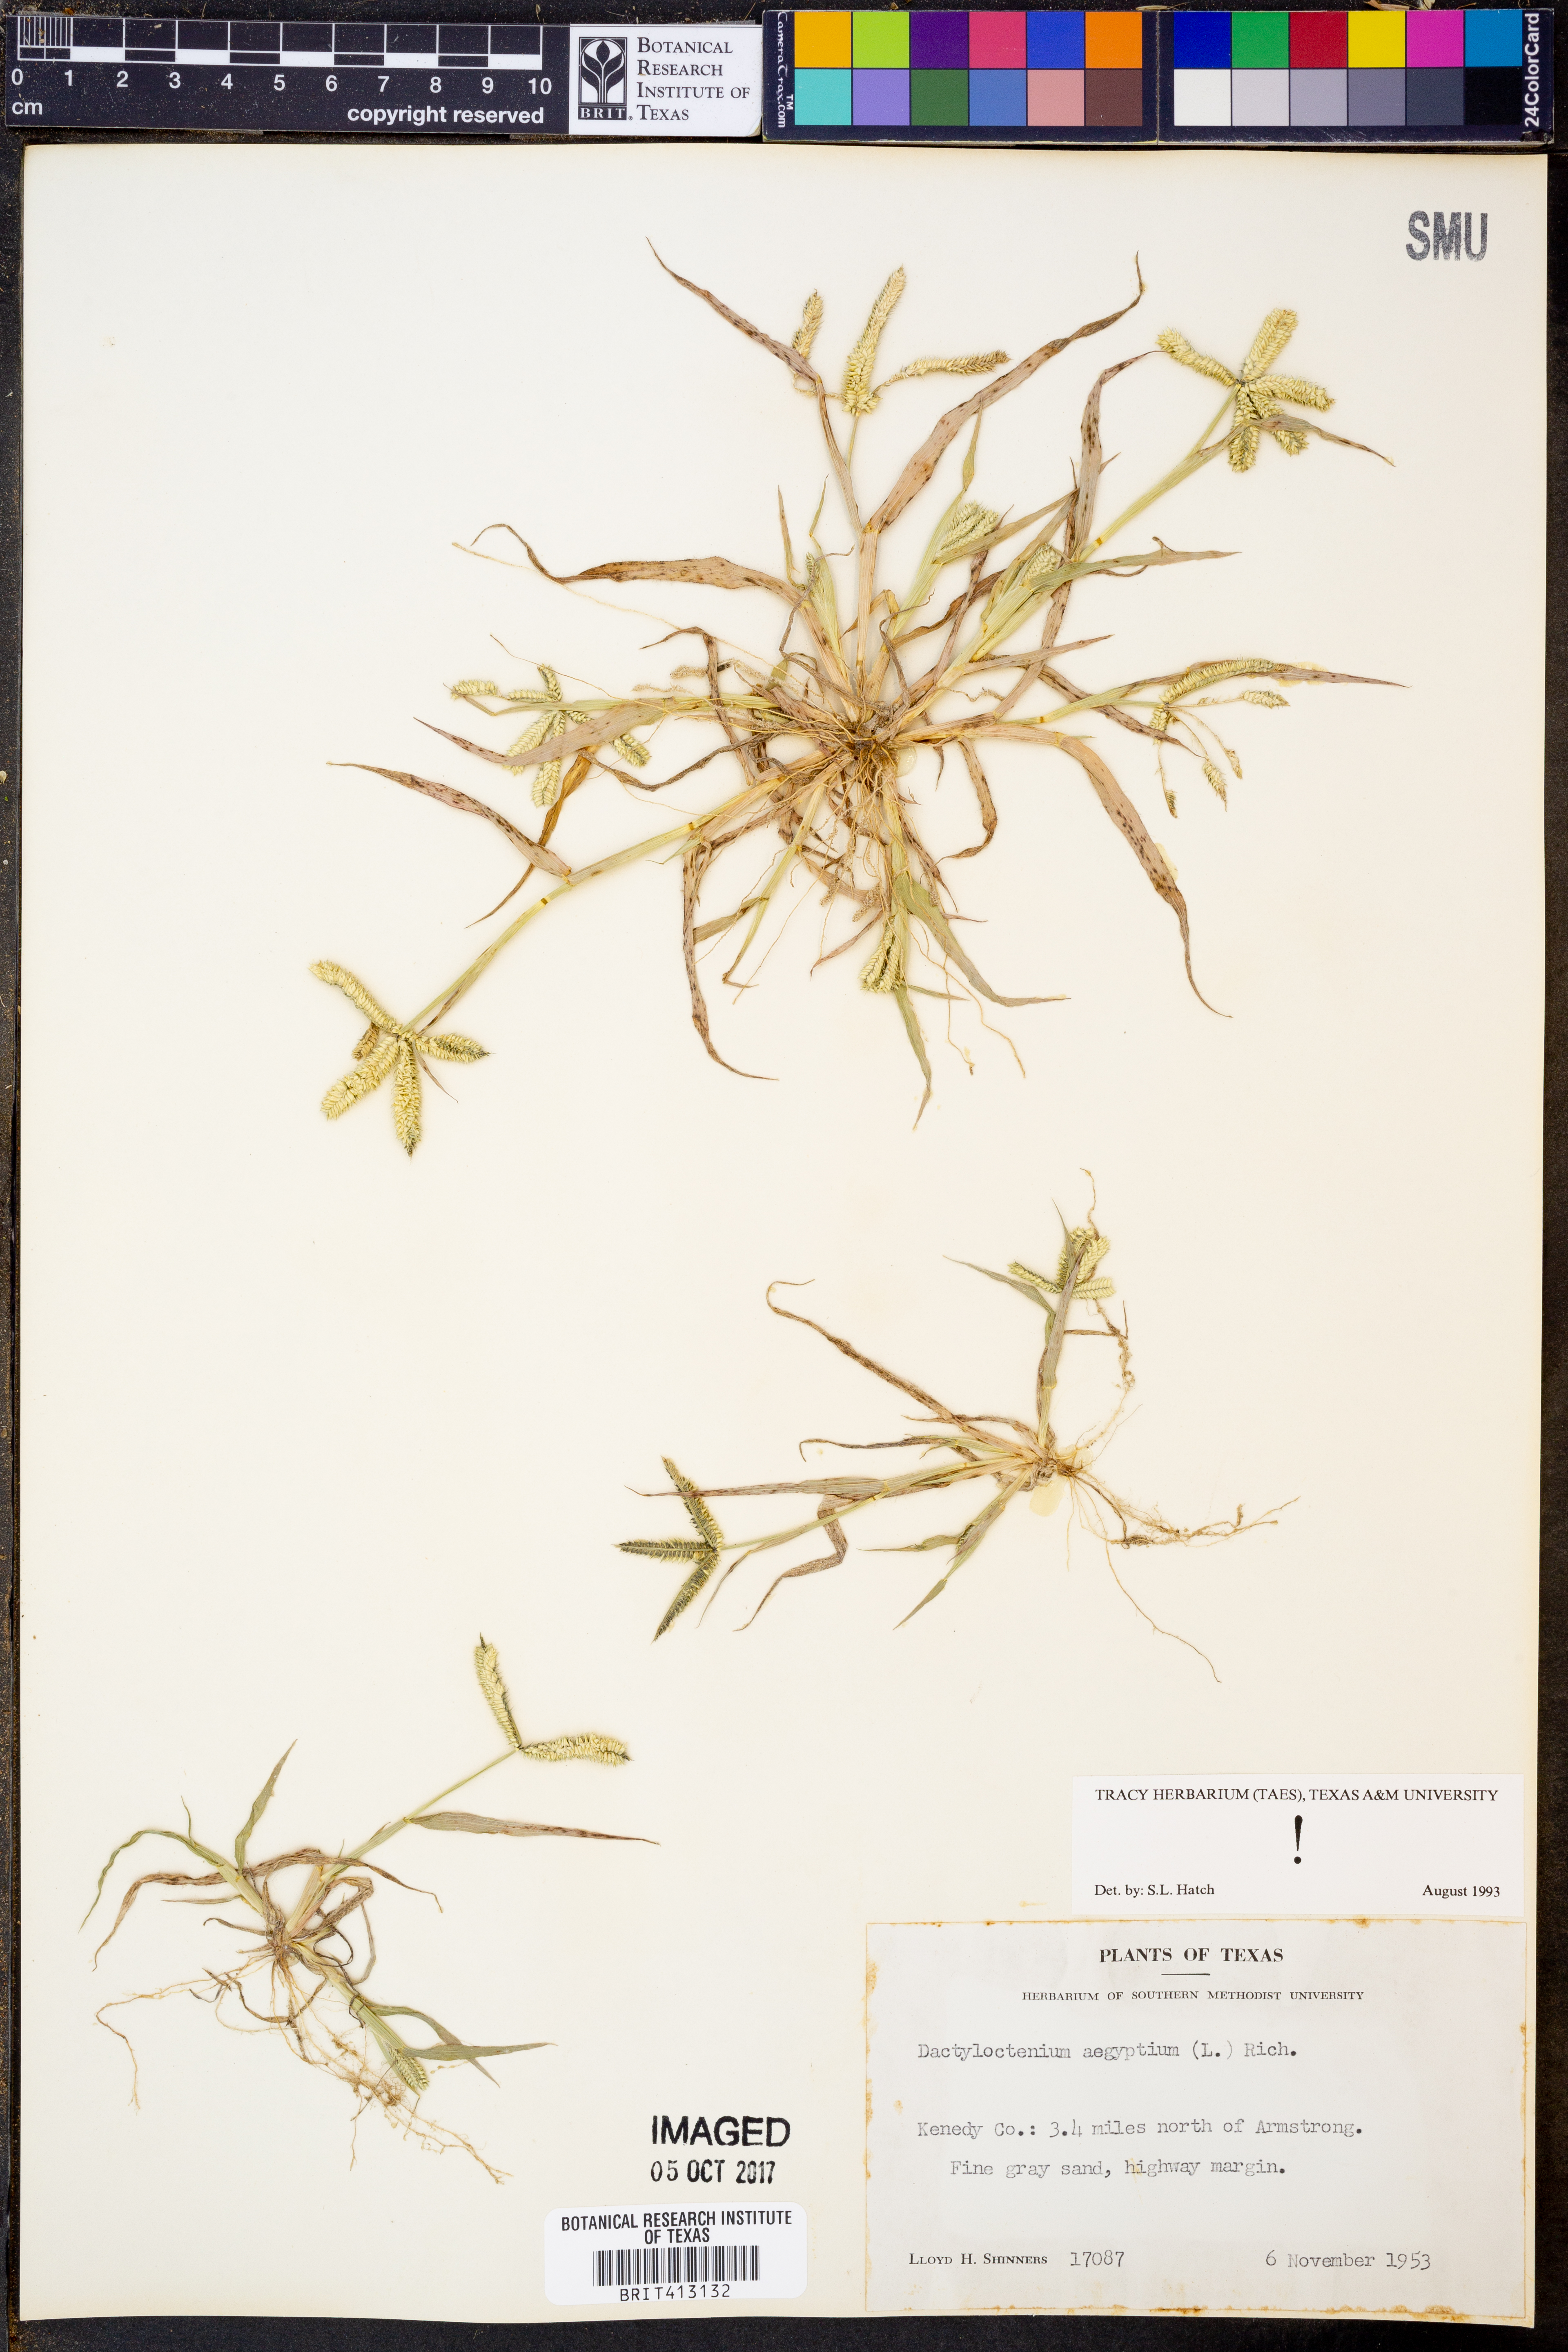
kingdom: Plantae
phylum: Tracheophyta
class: Liliopsida
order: Poales
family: Poaceae
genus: Dactyloctenium
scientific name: Dactyloctenium aegyptium
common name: Egyptian grass
